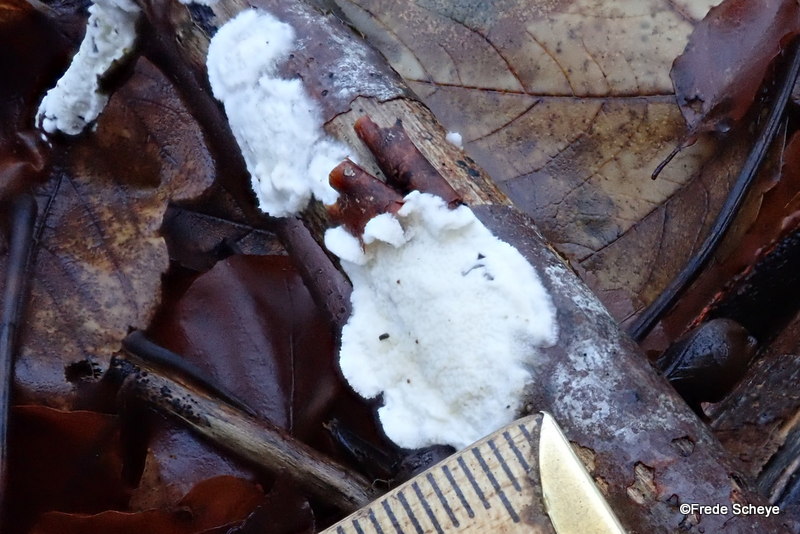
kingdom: Fungi
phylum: Basidiomycota
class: Agaricomycetes
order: Polyporales
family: Irpicaceae
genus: Byssomerulius
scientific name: Byssomerulius corium
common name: læder-åresvamp
